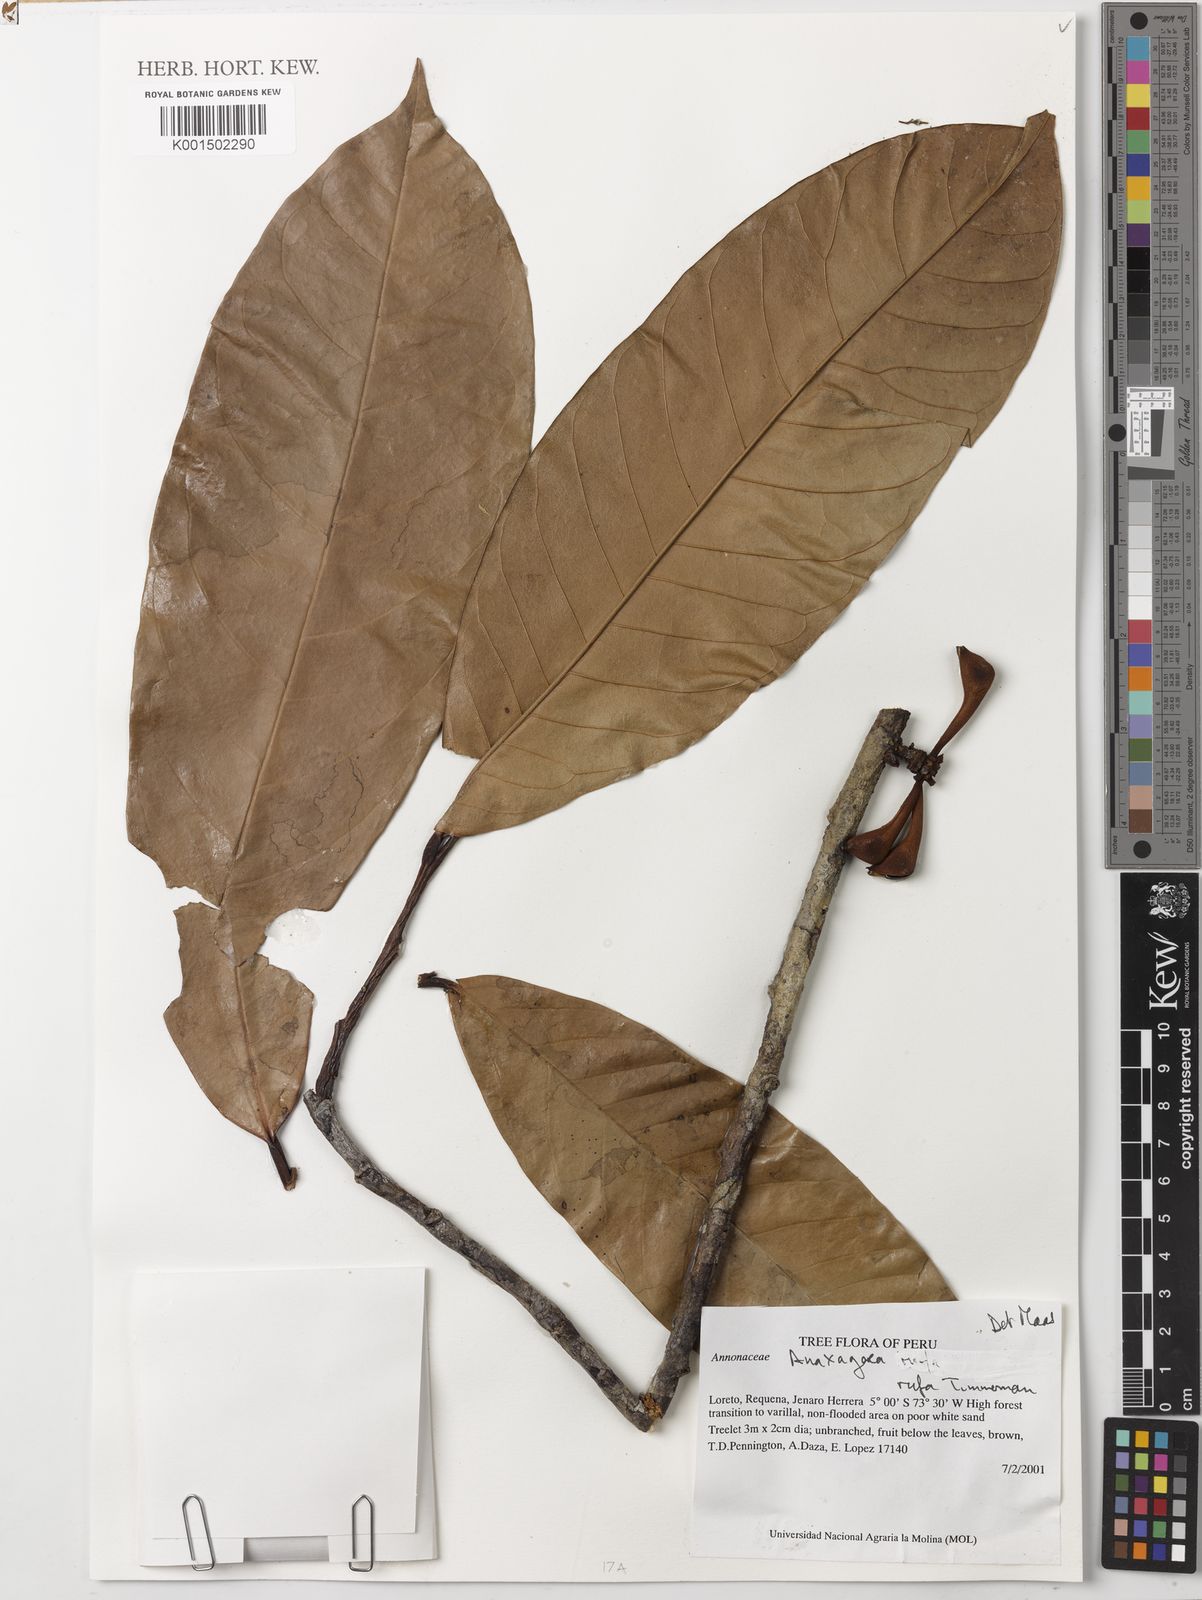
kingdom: Plantae
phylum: Tracheophyta
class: Magnoliopsida
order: Magnoliales
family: Annonaceae
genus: Anaxagorea
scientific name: Anaxagorea rufa
